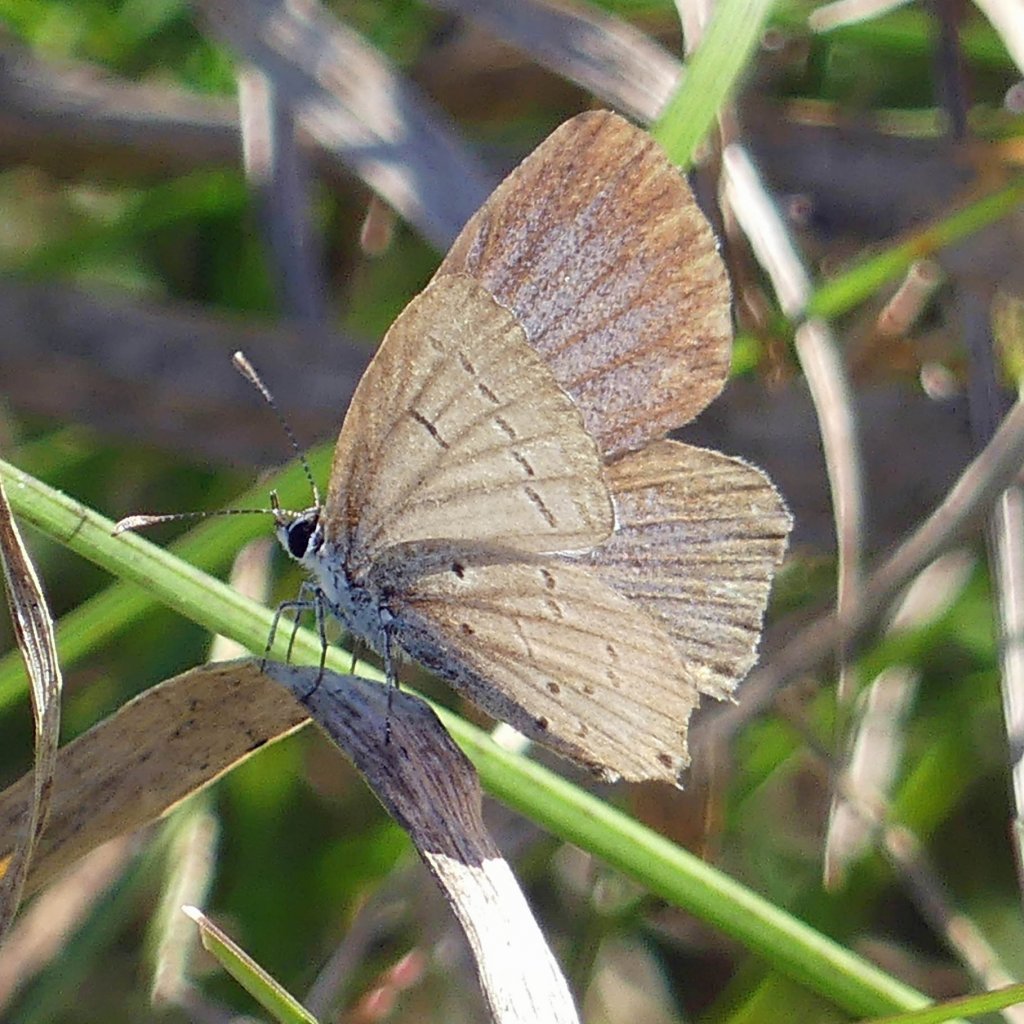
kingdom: Animalia
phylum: Arthropoda
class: Insecta
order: Lepidoptera
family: Lycaenidae
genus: Elkalyce
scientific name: Elkalyce comyntas
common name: Eastern Tailed-Blue
